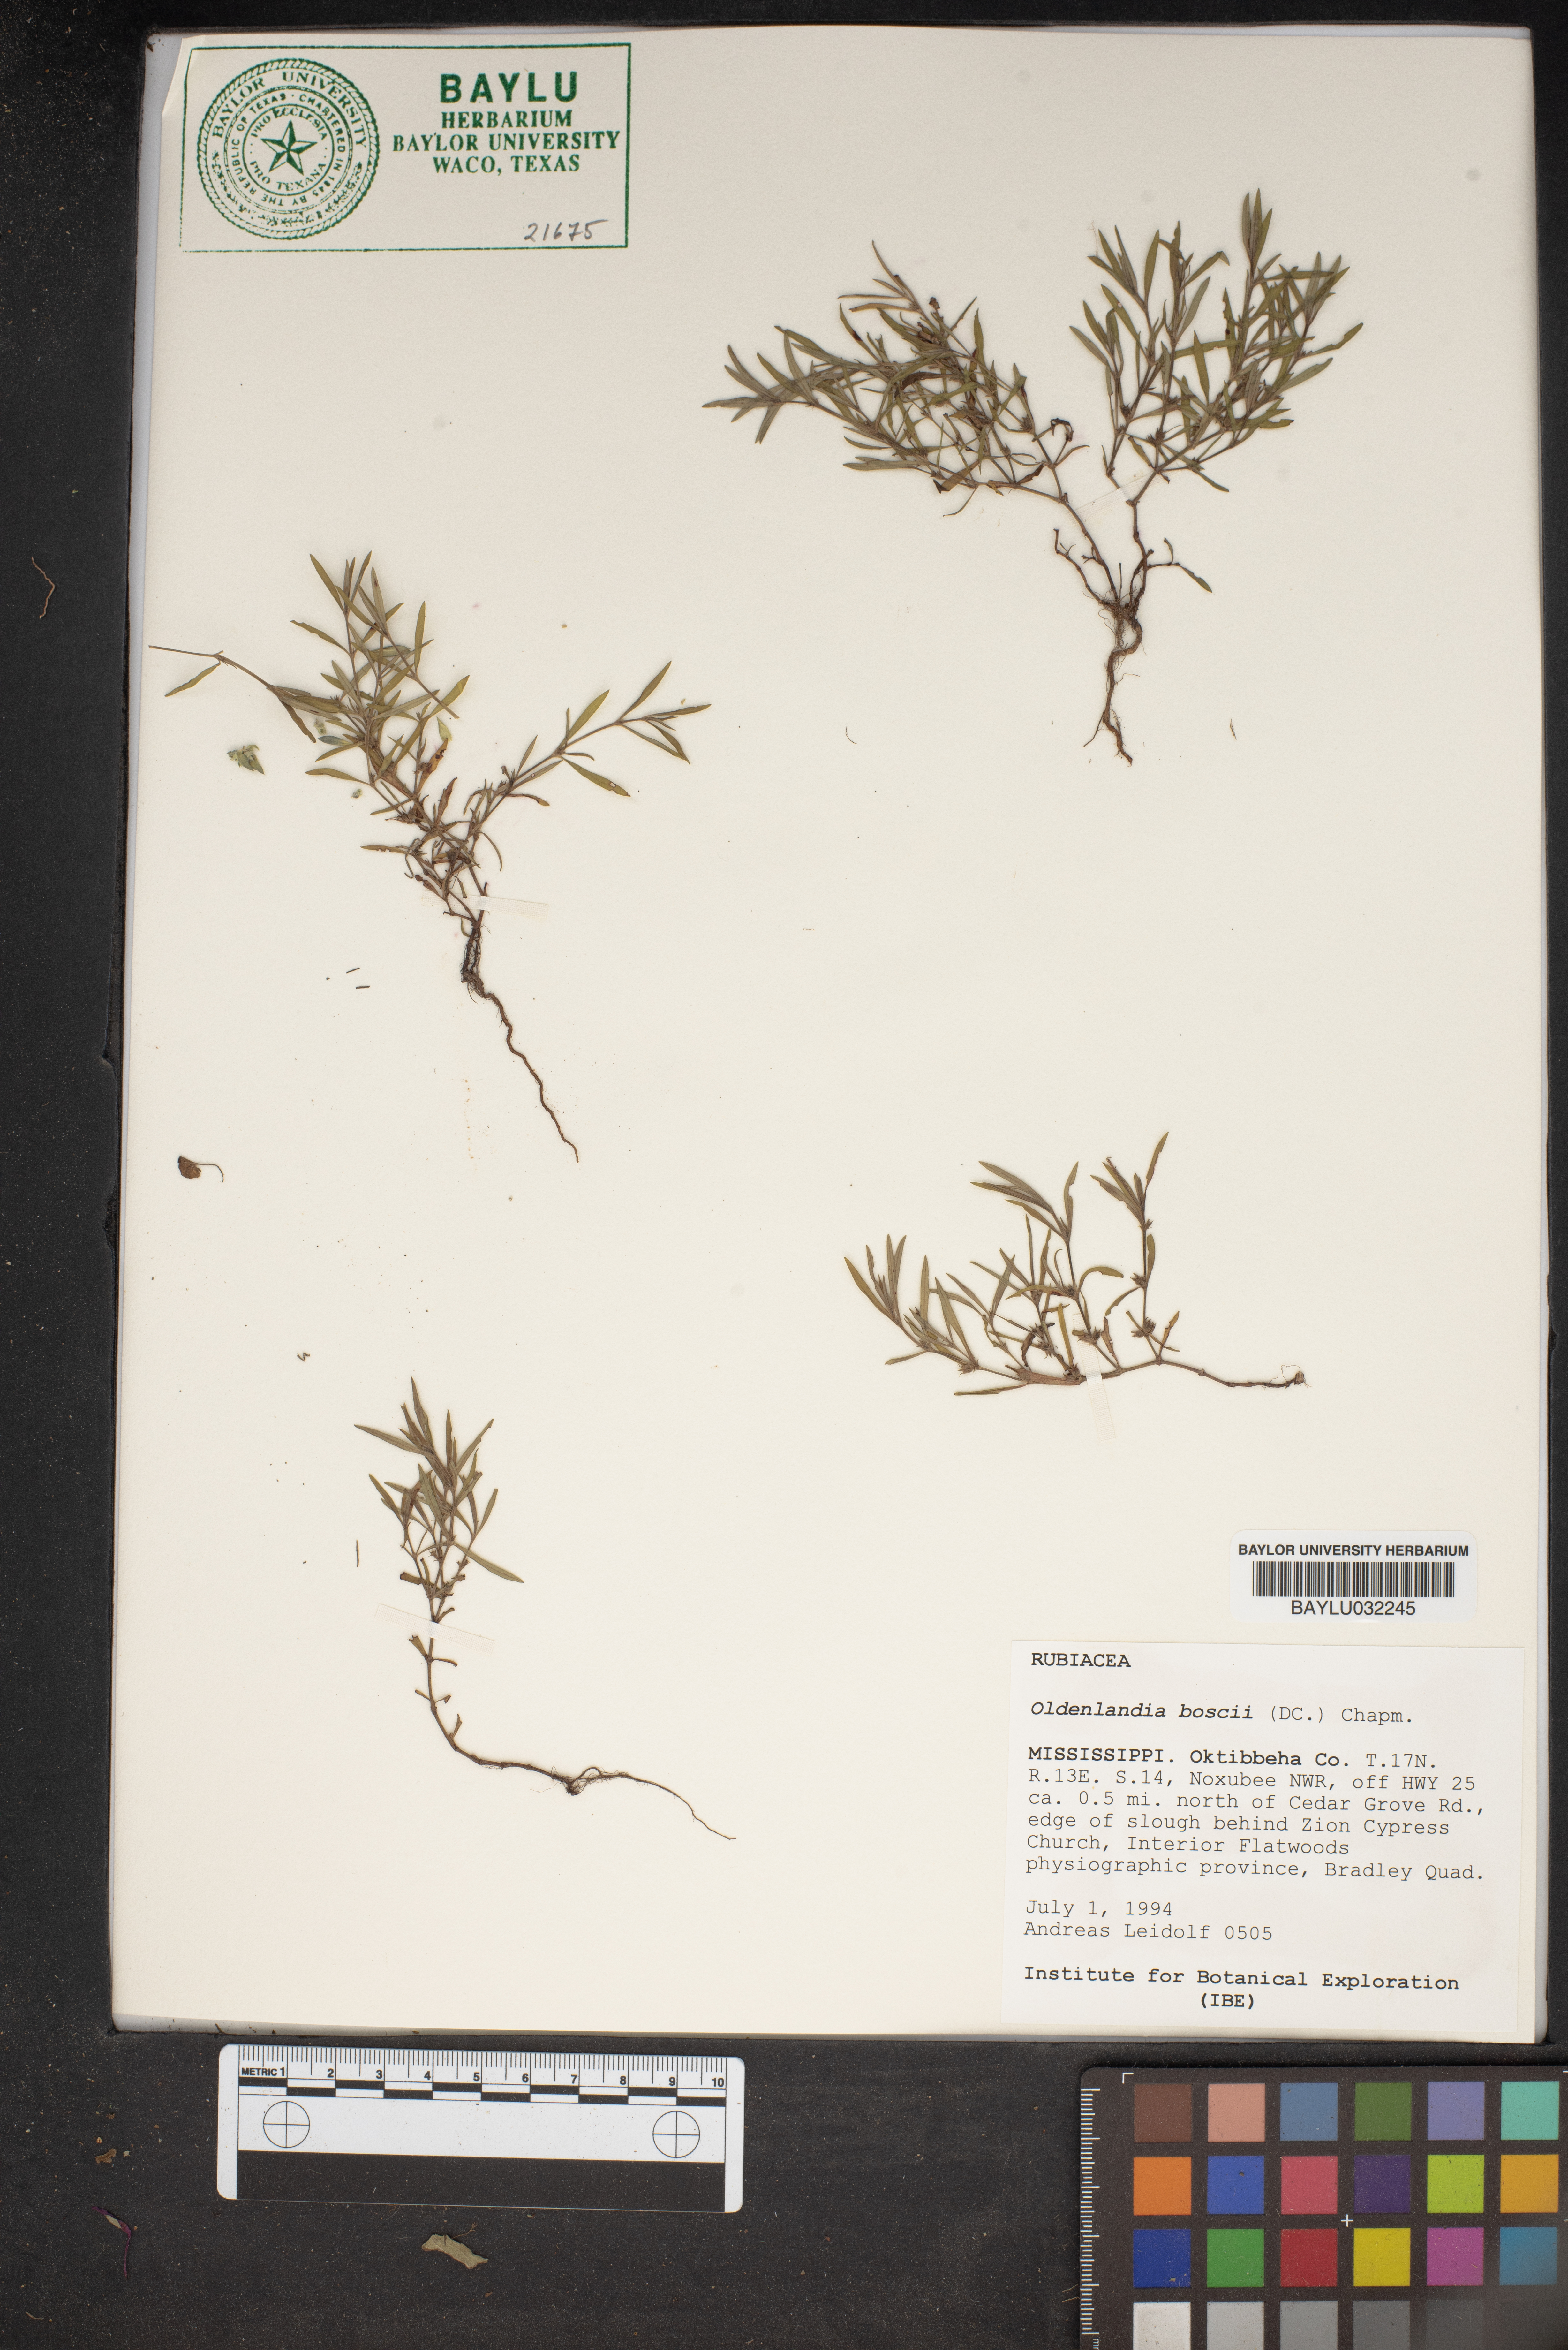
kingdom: Plantae
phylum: Tracheophyta
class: Magnoliopsida
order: Gentianales
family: Rubiaceae
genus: Oldenlandia
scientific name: Oldenlandia boscii
